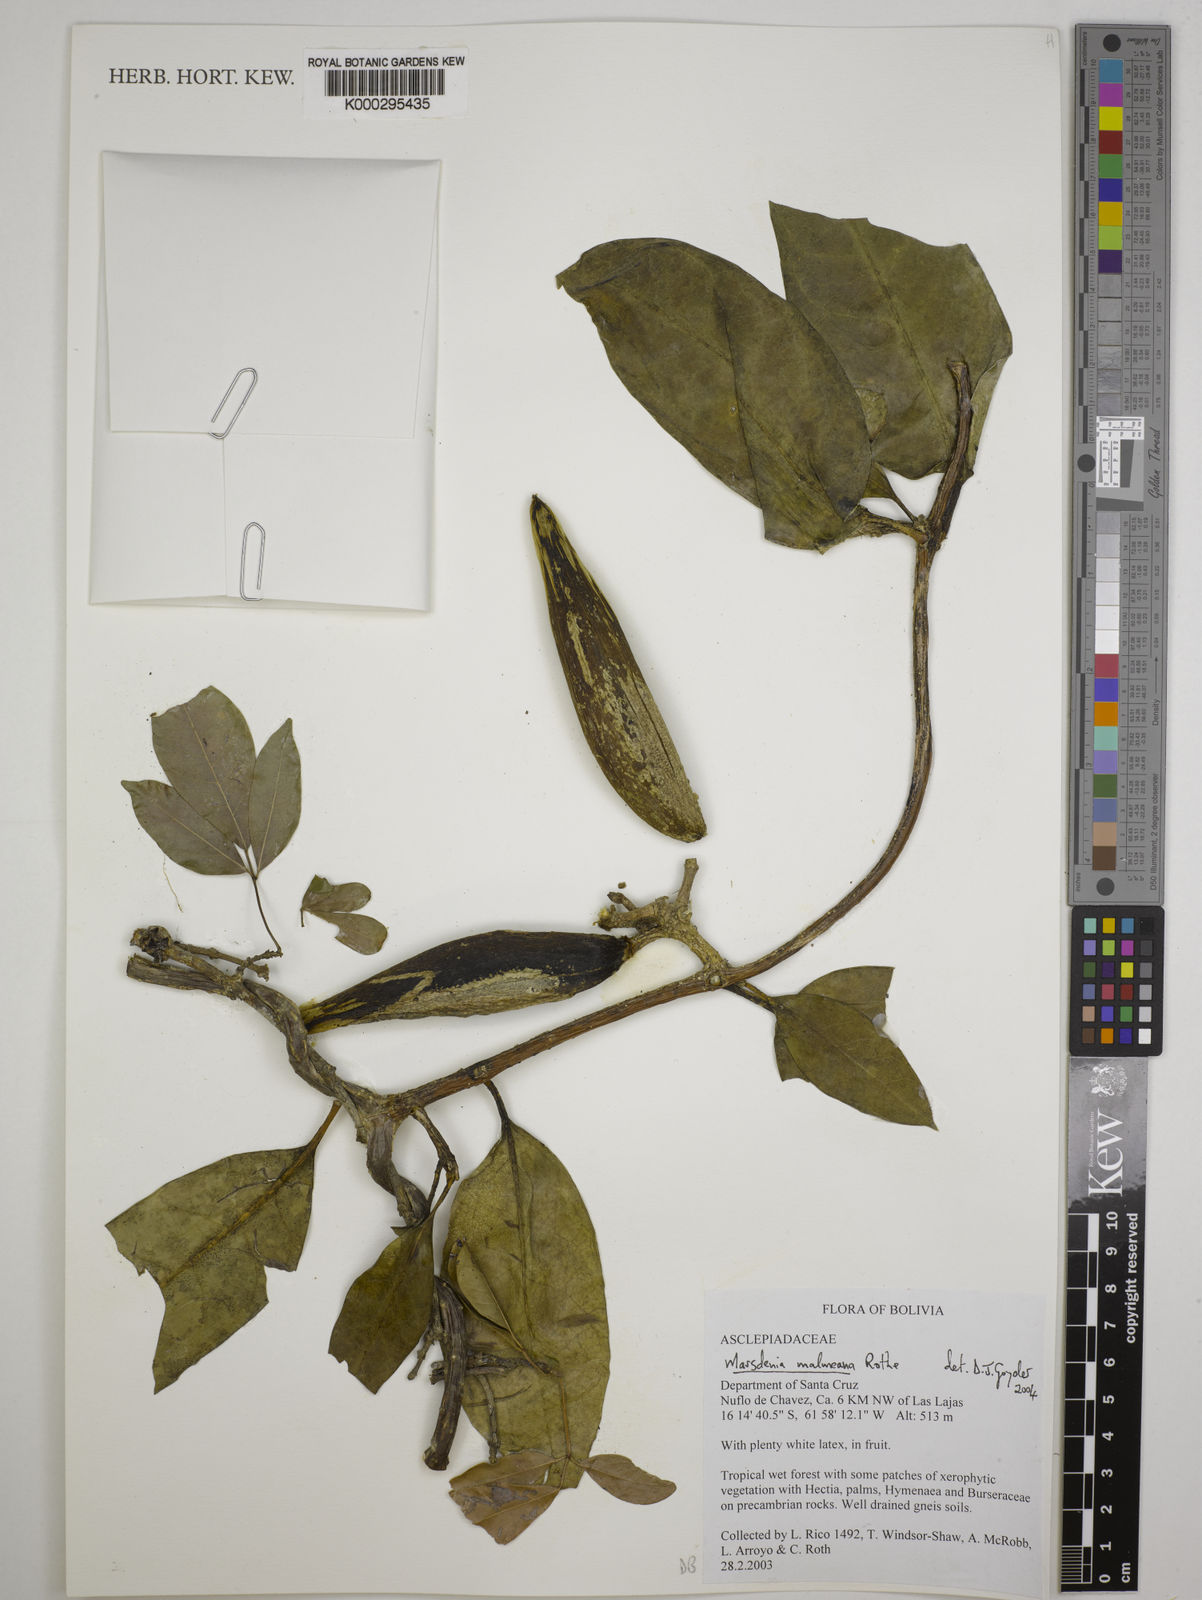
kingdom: Plantae
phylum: Tracheophyta
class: Magnoliopsida
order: Gentianales
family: Apocynaceae
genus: Ruehssia
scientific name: Ruehssia malmeana
